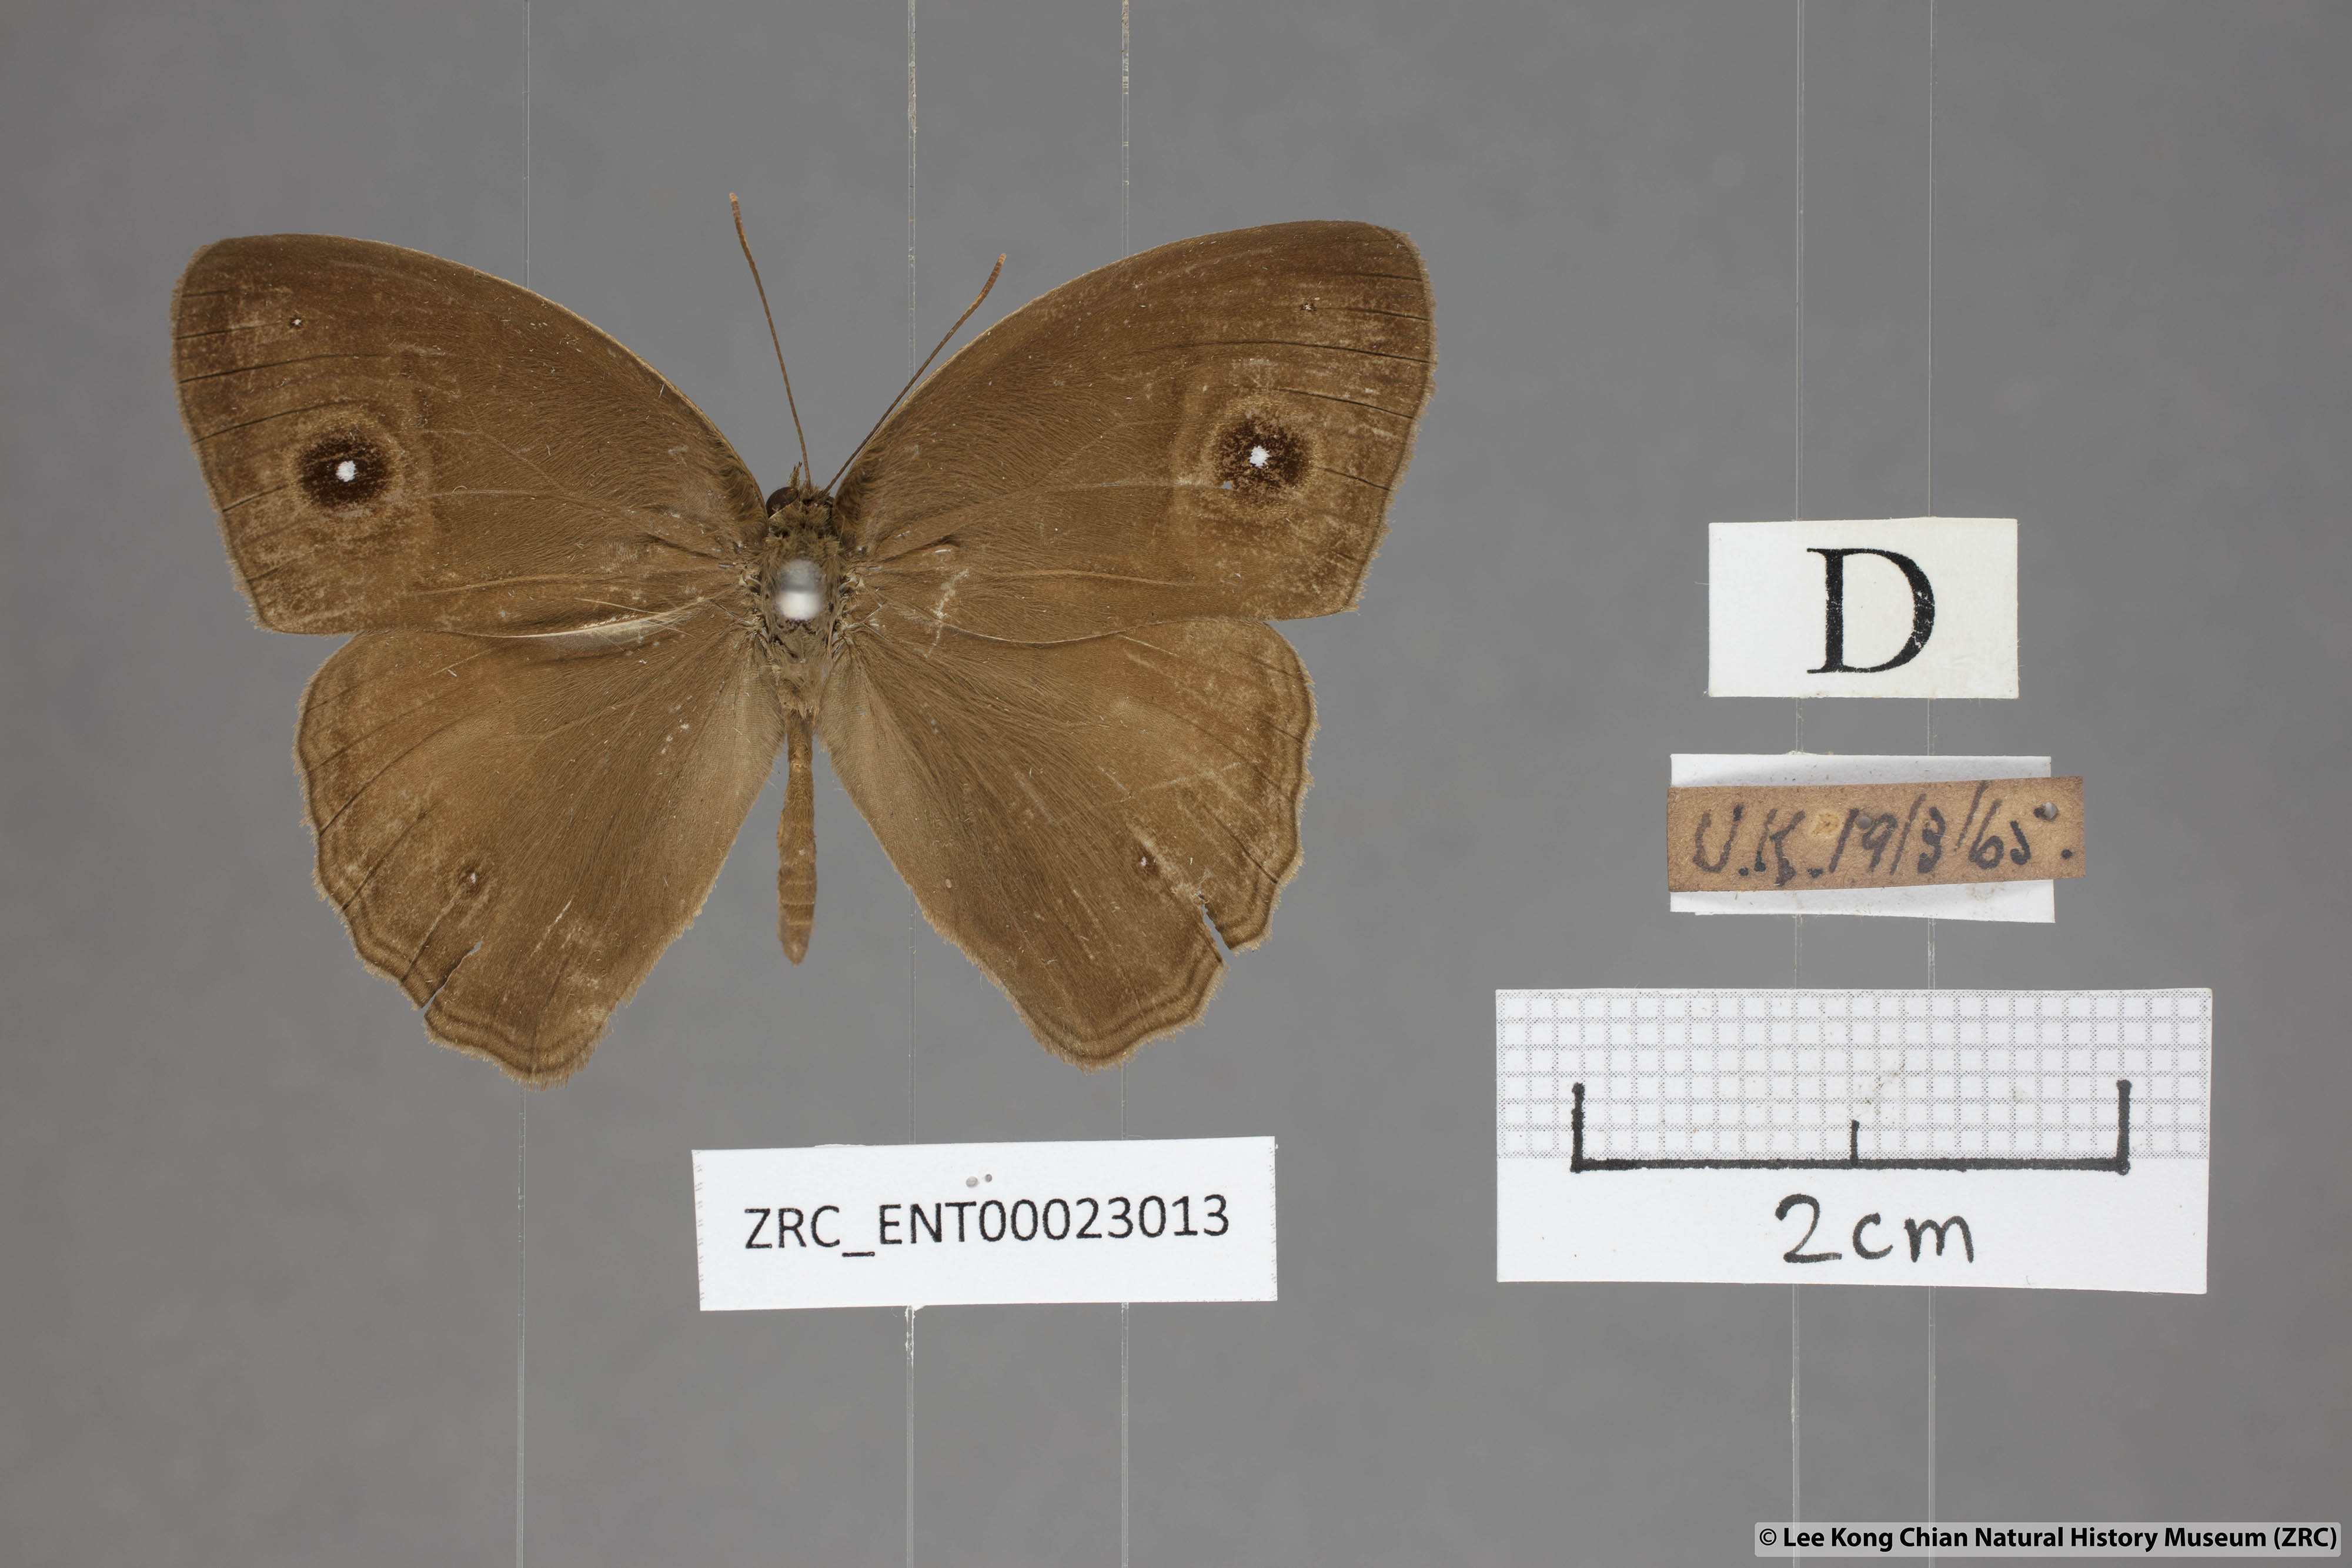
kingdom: Animalia
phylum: Arthropoda
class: Insecta
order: Lepidoptera
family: Nymphalidae
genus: Mycalesis
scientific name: Mycalesis visala
